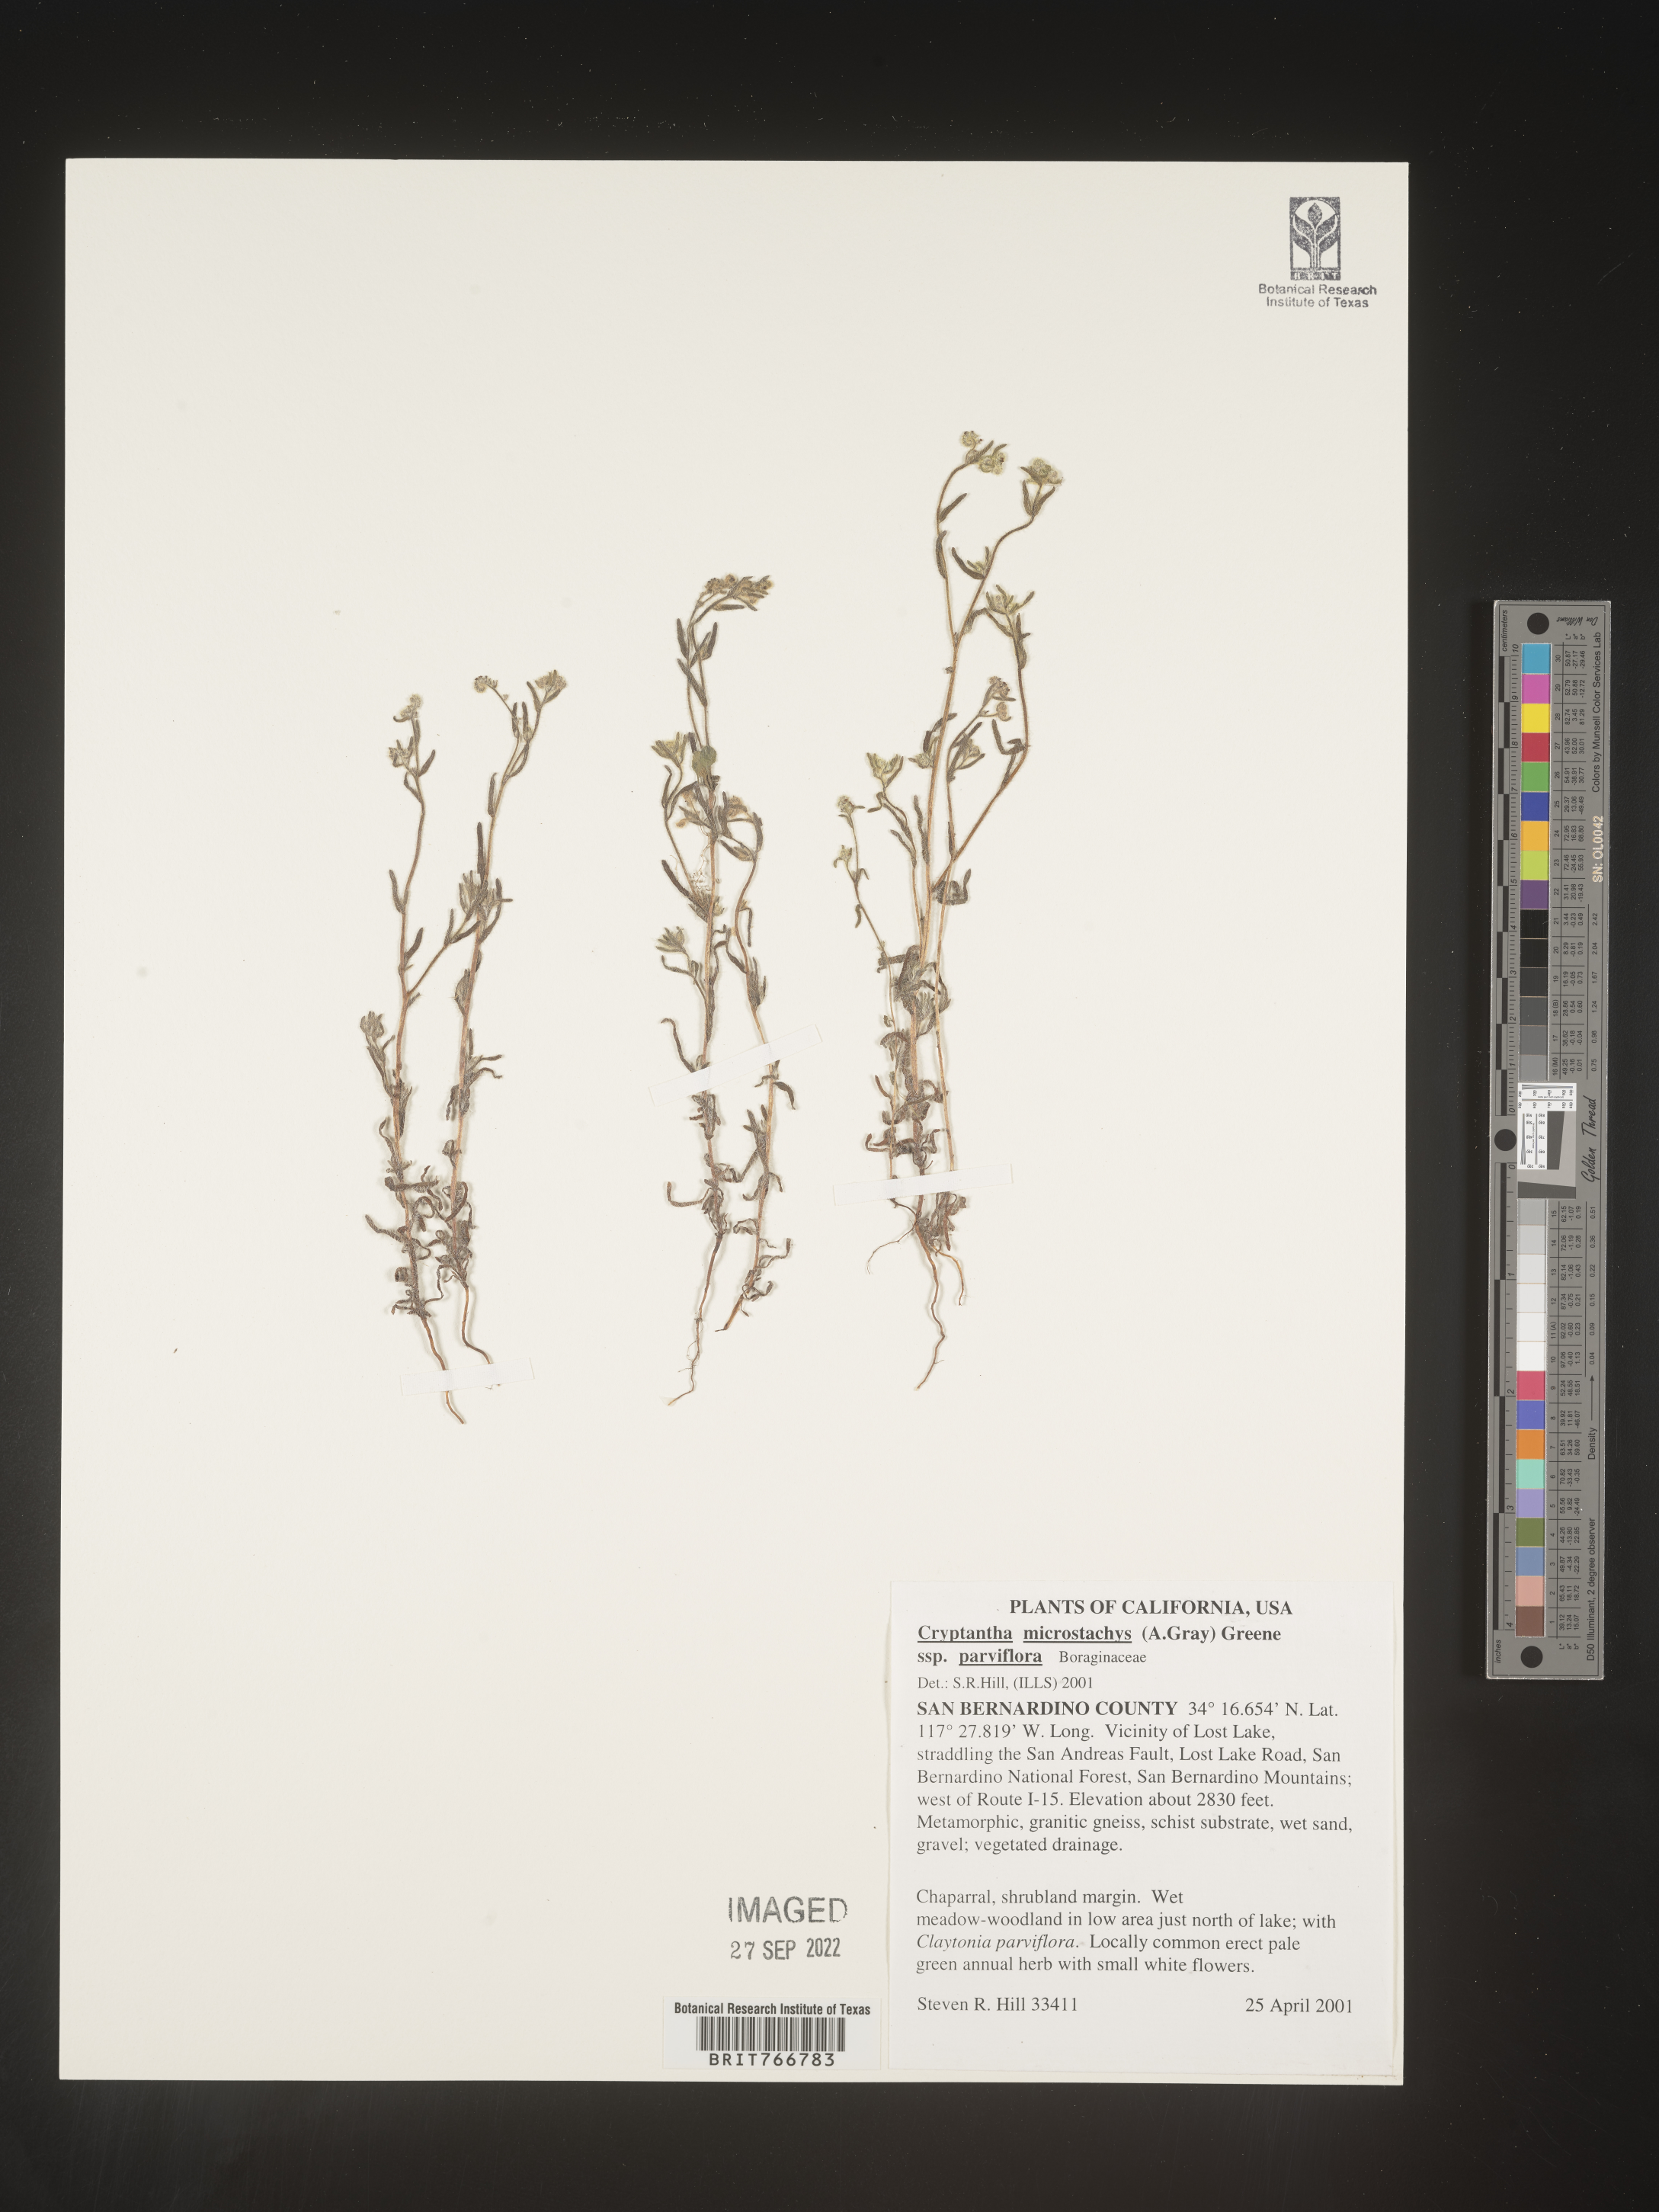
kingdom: Plantae
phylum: Tracheophyta
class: Magnoliopsida
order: Boraginales
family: Boraginaceae
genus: Cryptantha
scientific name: Cryptantha
